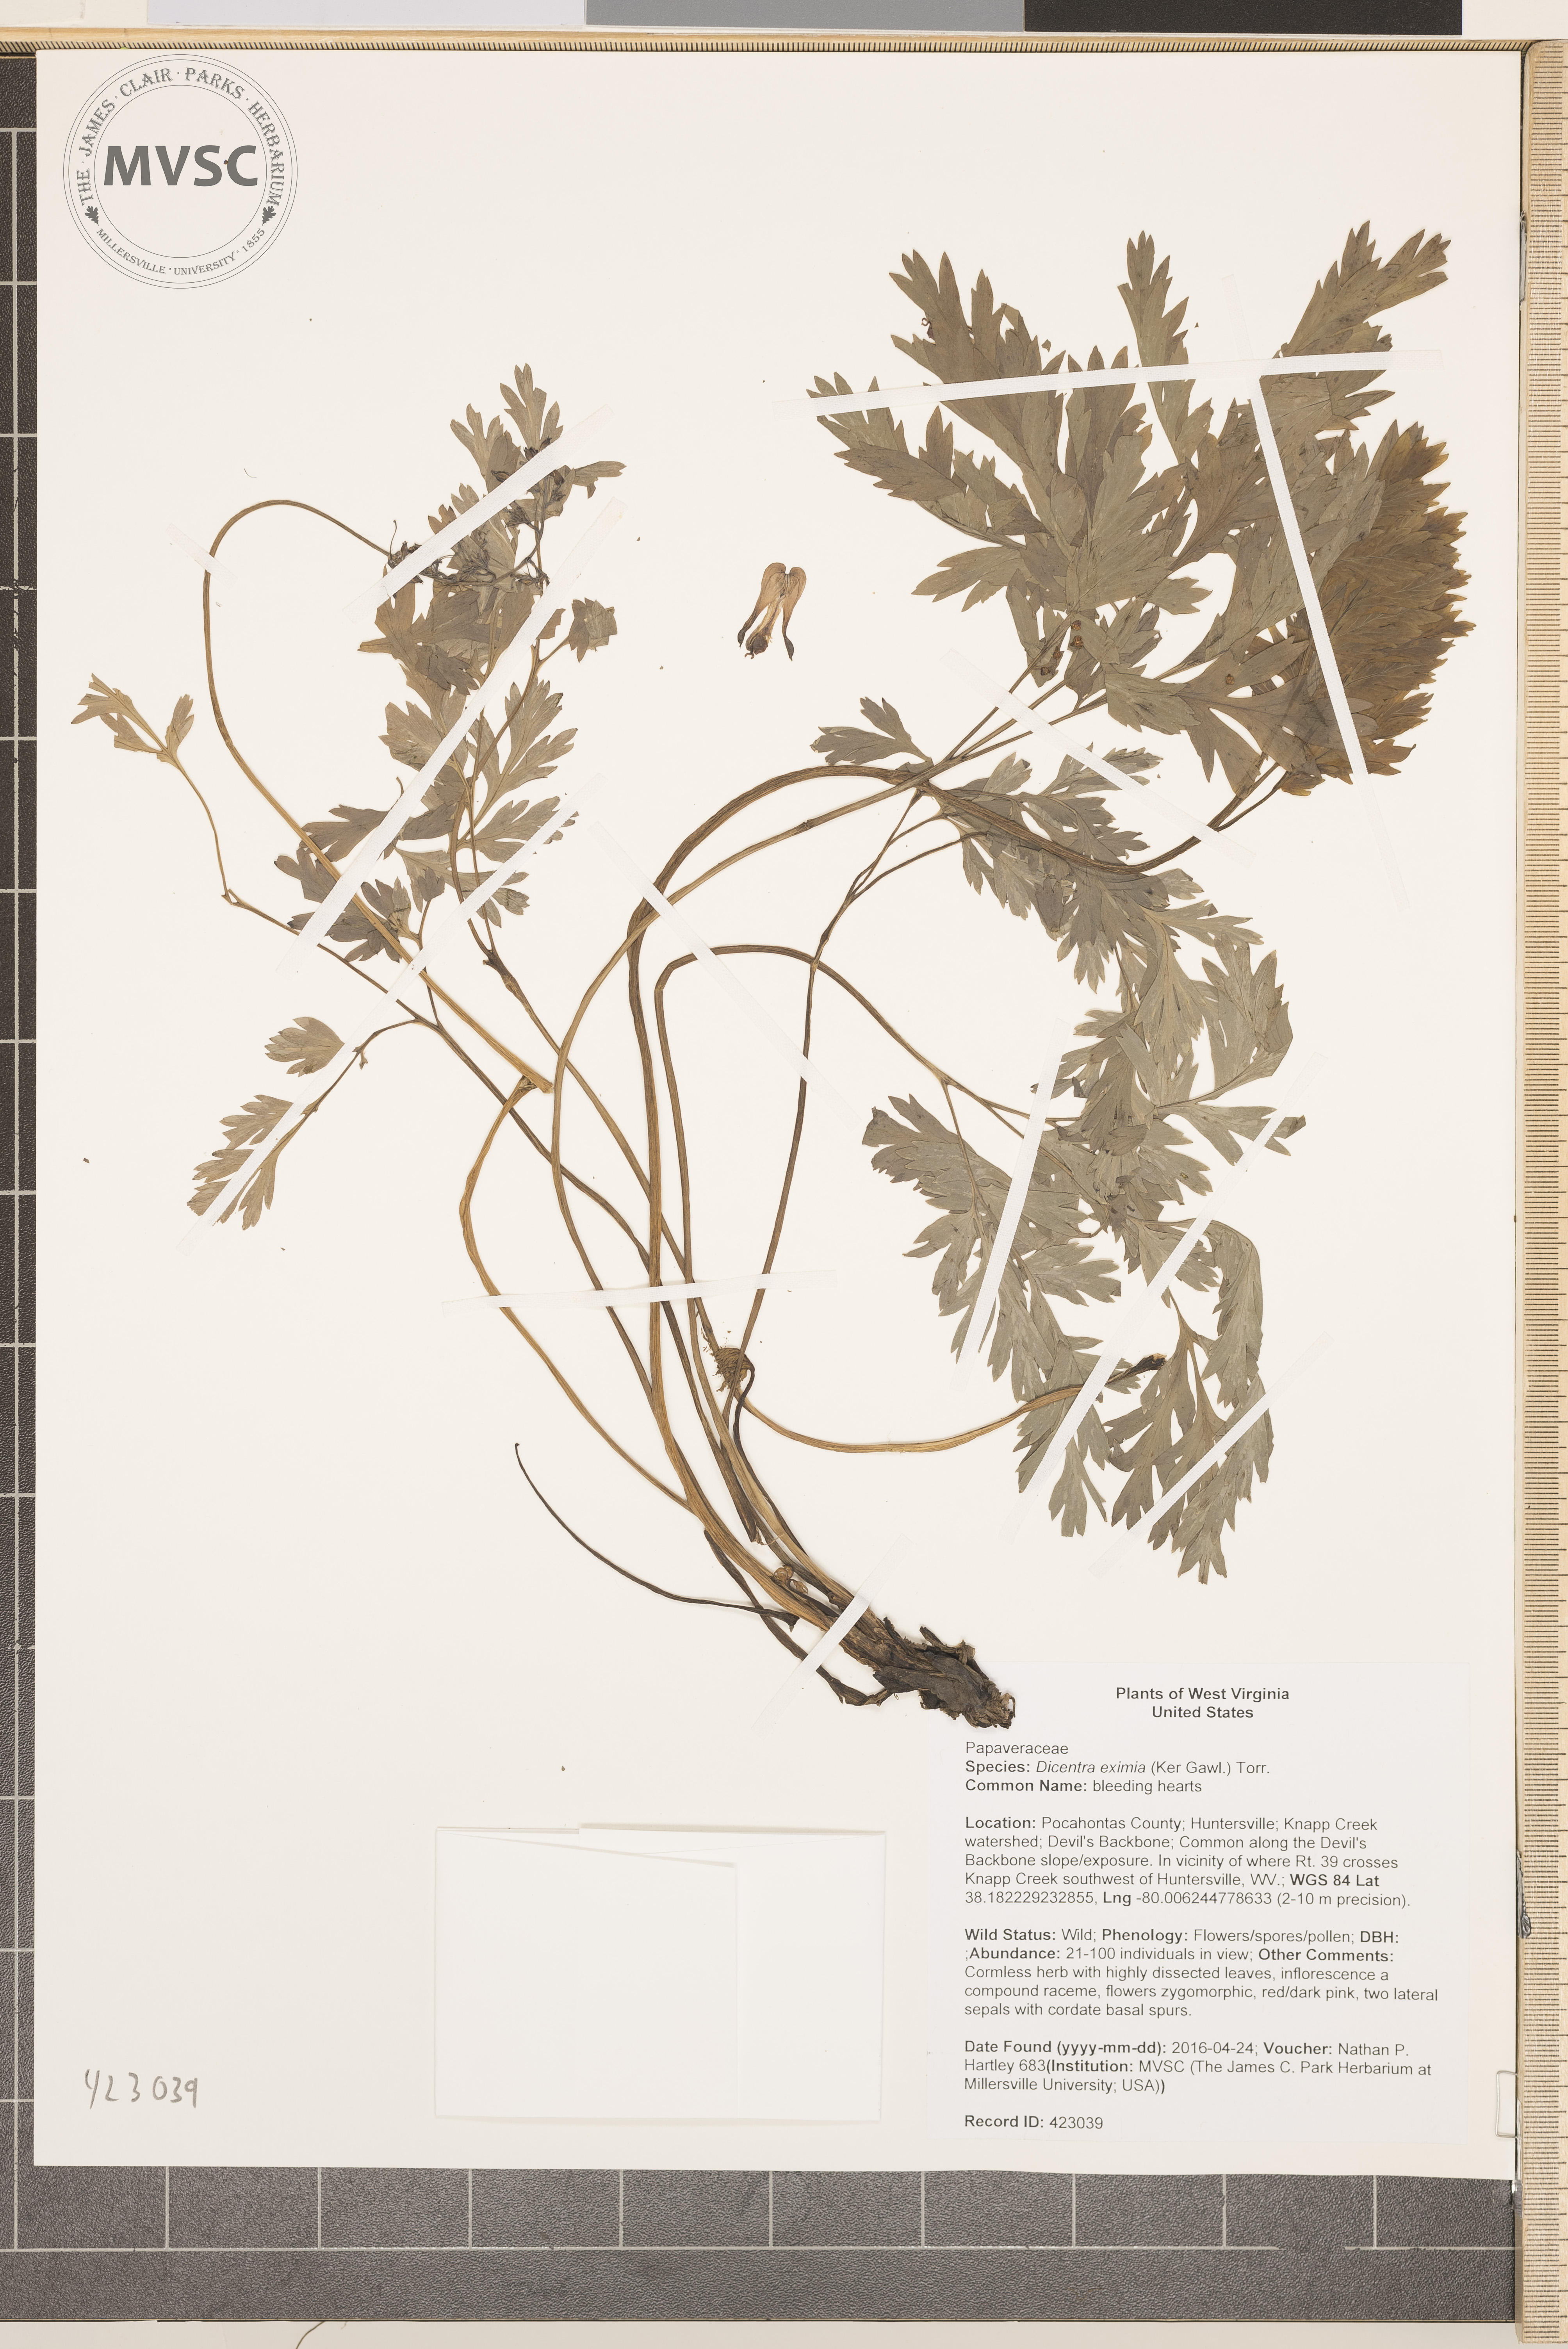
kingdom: Plantae
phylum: Tracheophyta
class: Magnoliopsida
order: Ranunculales
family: Papaveraceae
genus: Dicentra
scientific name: Dicentra eximia
